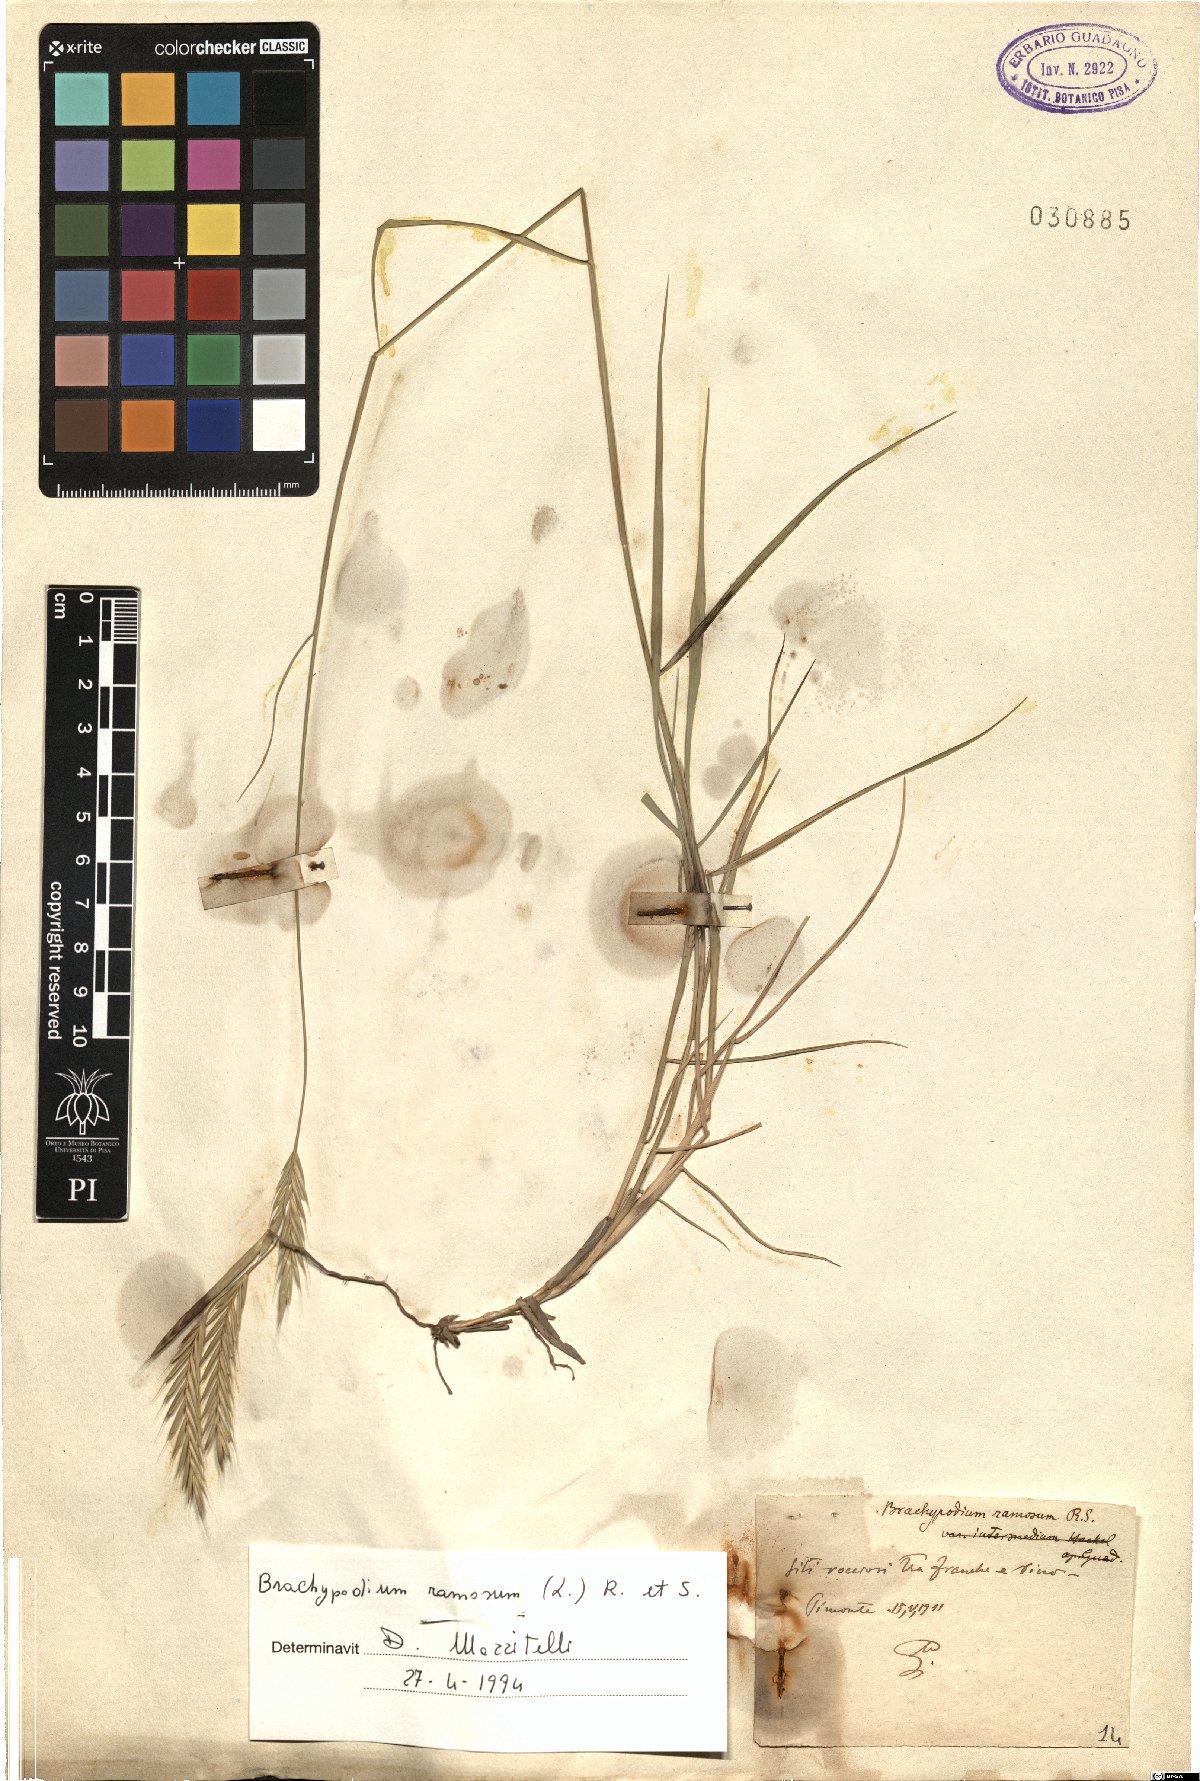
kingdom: Plantae
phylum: Tracheophyta
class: Liliopsida
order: Poales
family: Poaceae
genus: Brachypodium
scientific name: Brachypodium retusum
